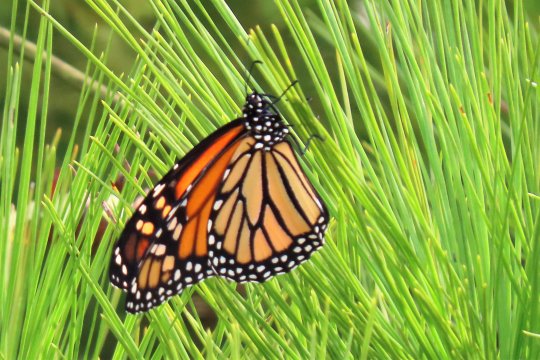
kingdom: Animalia
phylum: Arthropoda
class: Insecta
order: Lepidoptera
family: Nymphalidae
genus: Danaus
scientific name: Danaus plexippus
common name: Monarch
